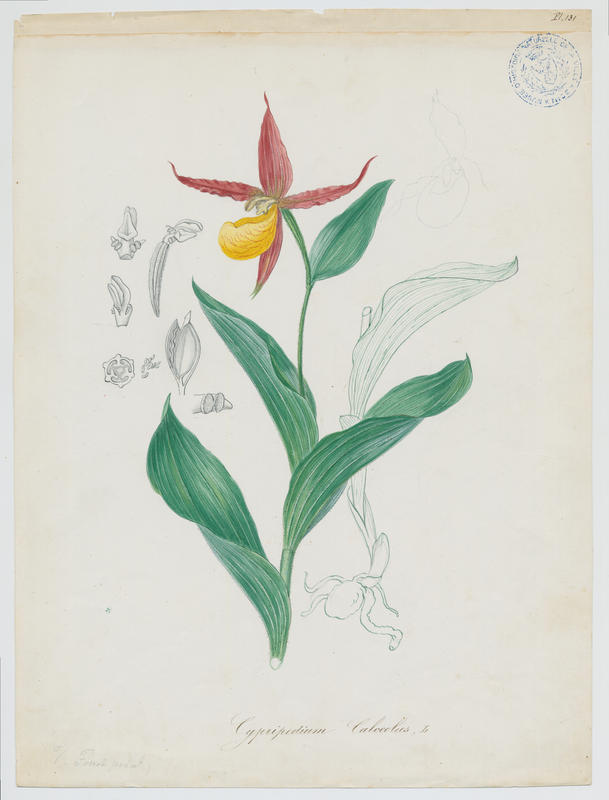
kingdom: Plantae
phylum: Tracheophyta
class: Liliopsida
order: Asparagales
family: Orchidaceae
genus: Cypripedium
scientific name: Cypripedium calceolus
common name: Lady's-slipper
